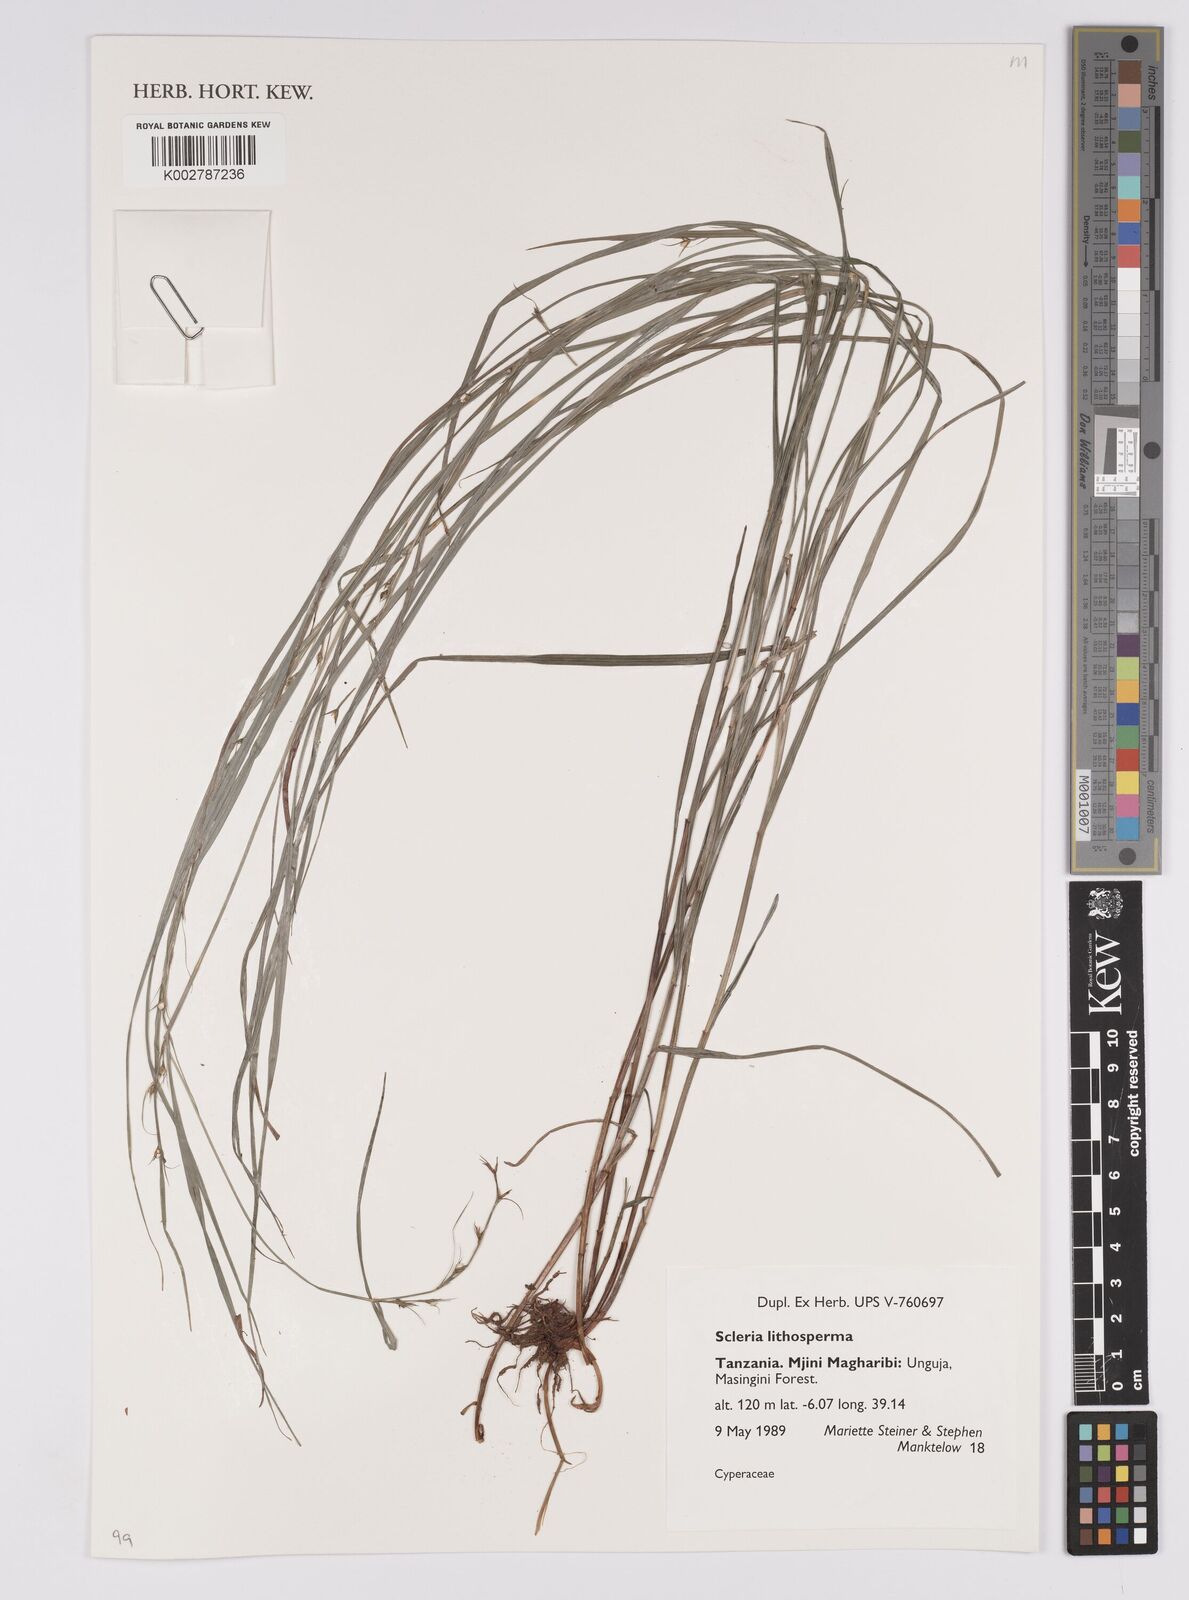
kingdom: Plantae
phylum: Tracheophyta
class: Liliopsida
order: Poales
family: Cyperaceae
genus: Scleria
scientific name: Scleria lithosperma
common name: Florida keys nut-rush
